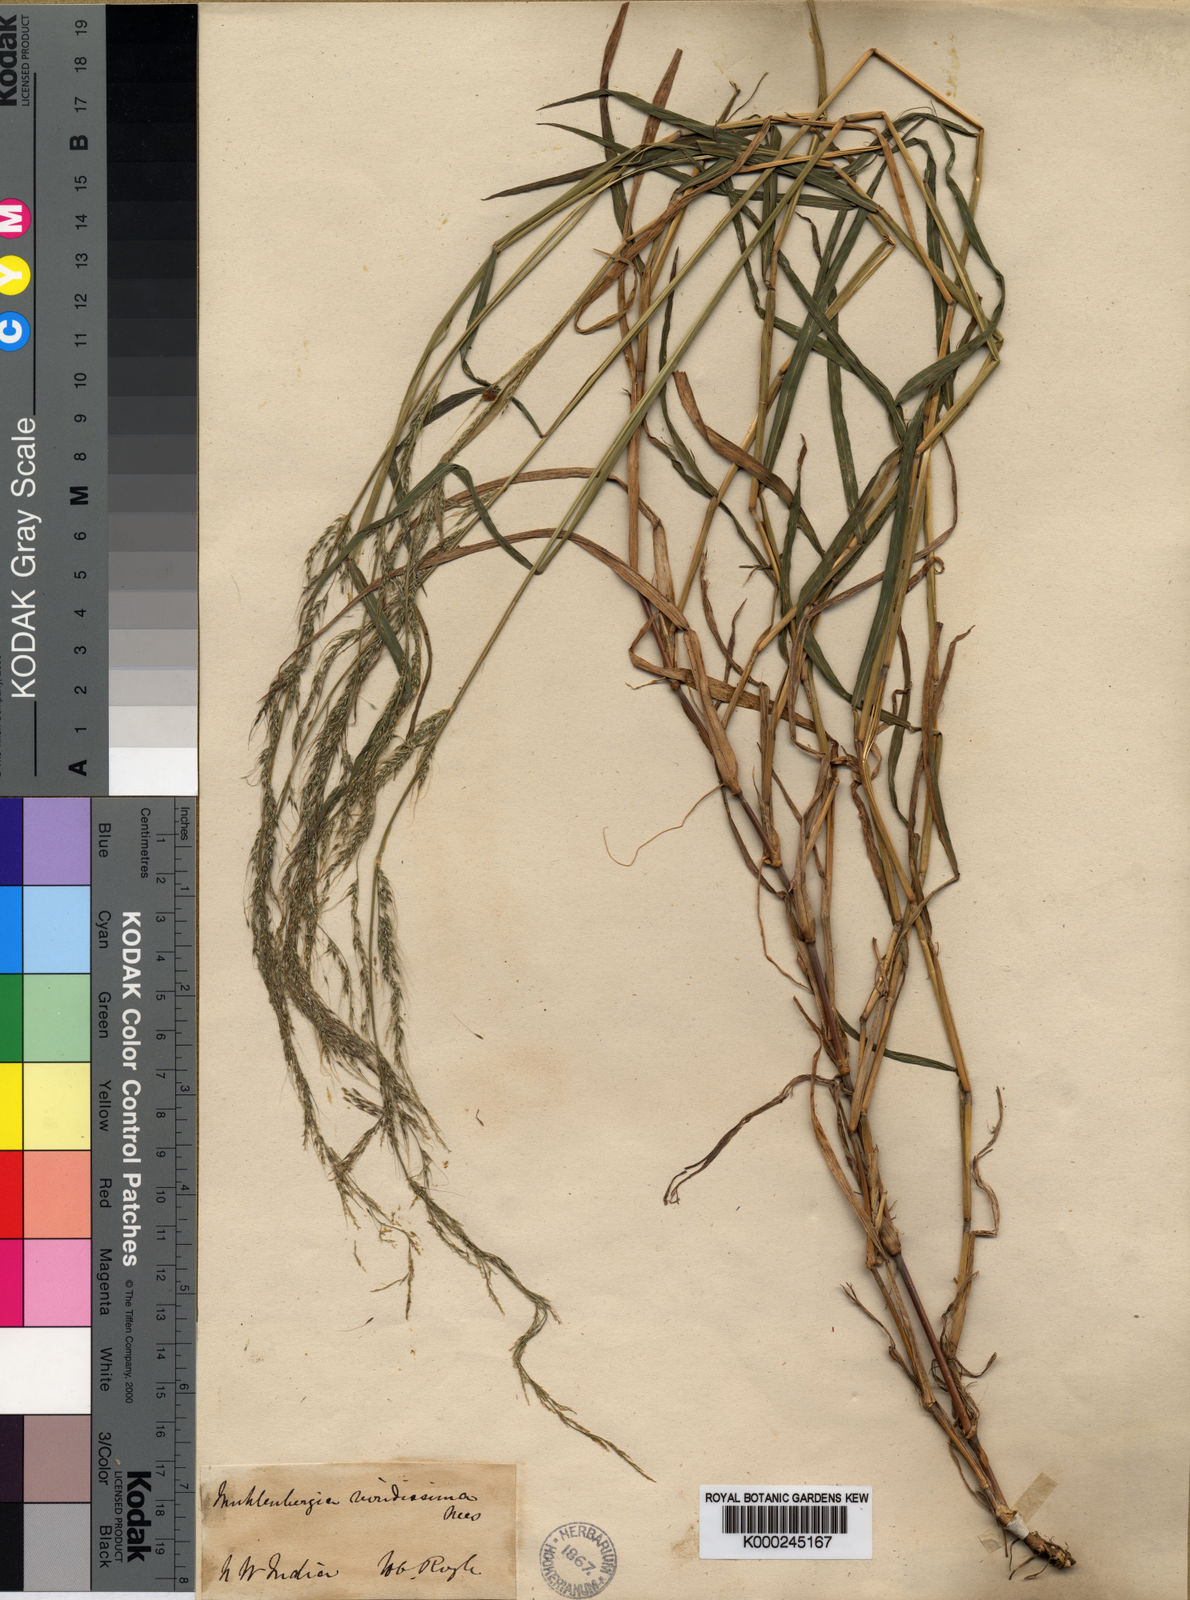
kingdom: Plantae
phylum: Tracheophyta
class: Liliopsida
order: Poales
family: Poaceae
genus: Muhlenbergia
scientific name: Muhlenbergia huegelii
